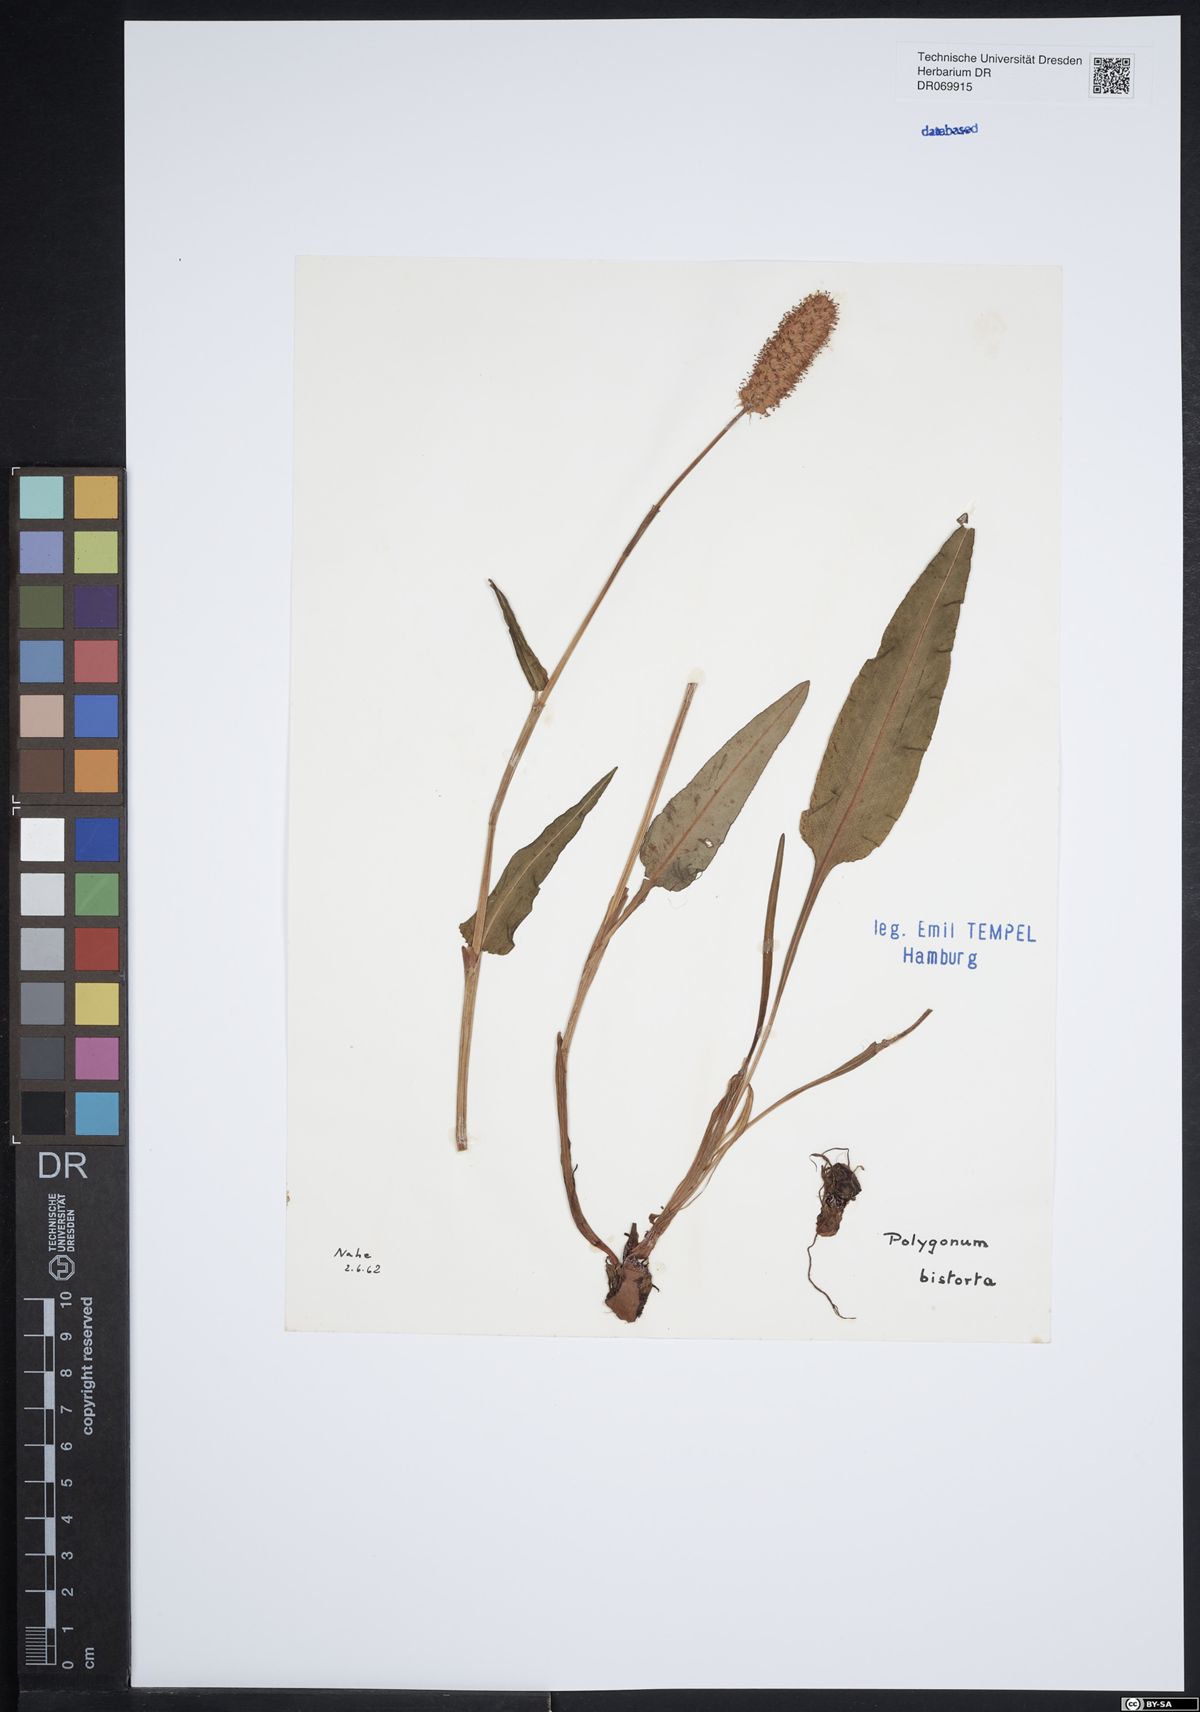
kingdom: Plantae
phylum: Tracheophyta
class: Magnoliopsida
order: Caryophyllales
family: Polygonaceae
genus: Polygonum
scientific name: Polygonum bistorta
